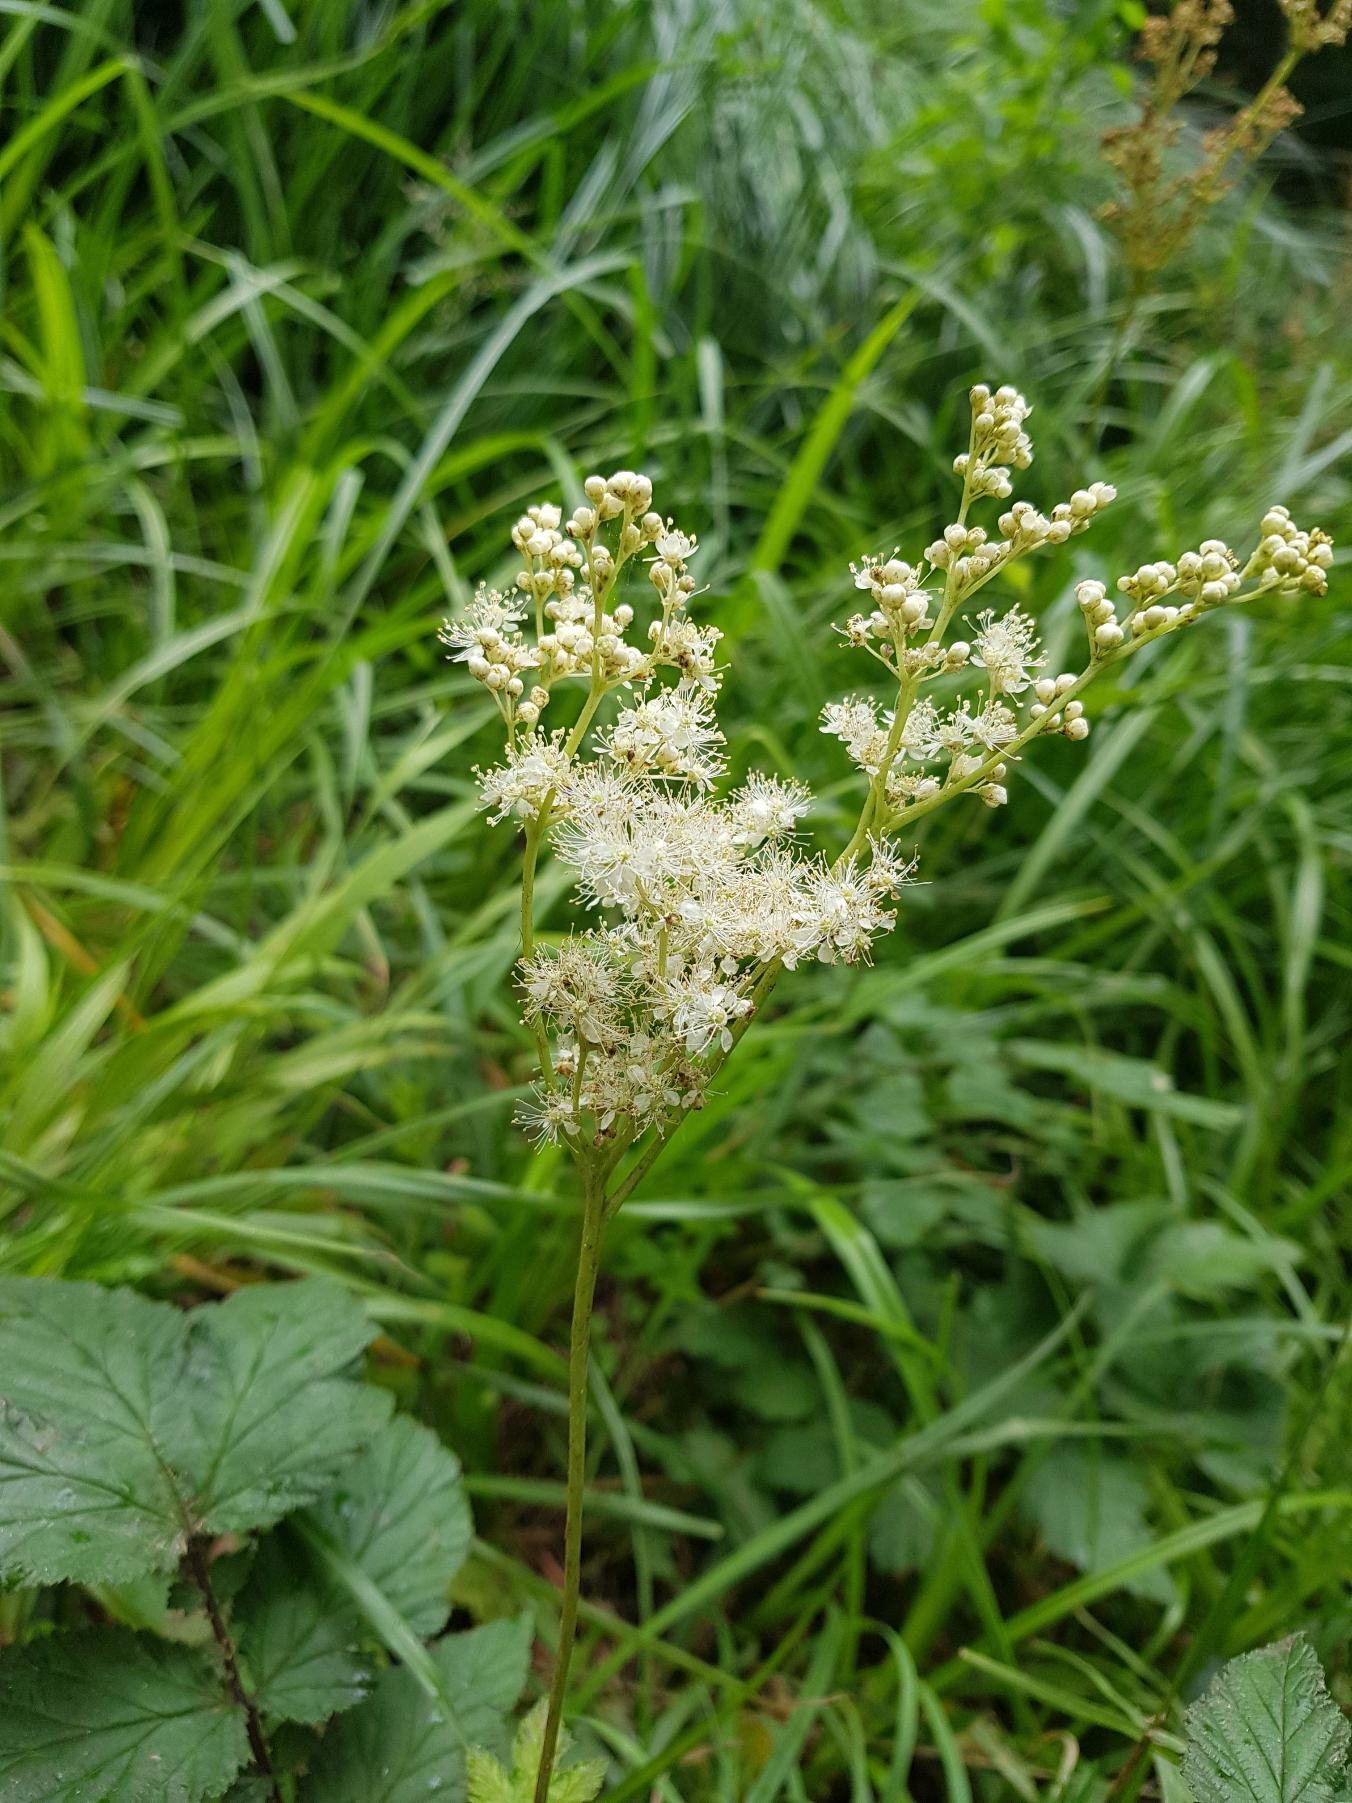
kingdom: Plantae
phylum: Tracheophyta
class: Magnoliopsida
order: Rosales
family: Rosaceae
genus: Filipendula
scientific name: Filipendula ulmaria
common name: Almindelig mjødurt
